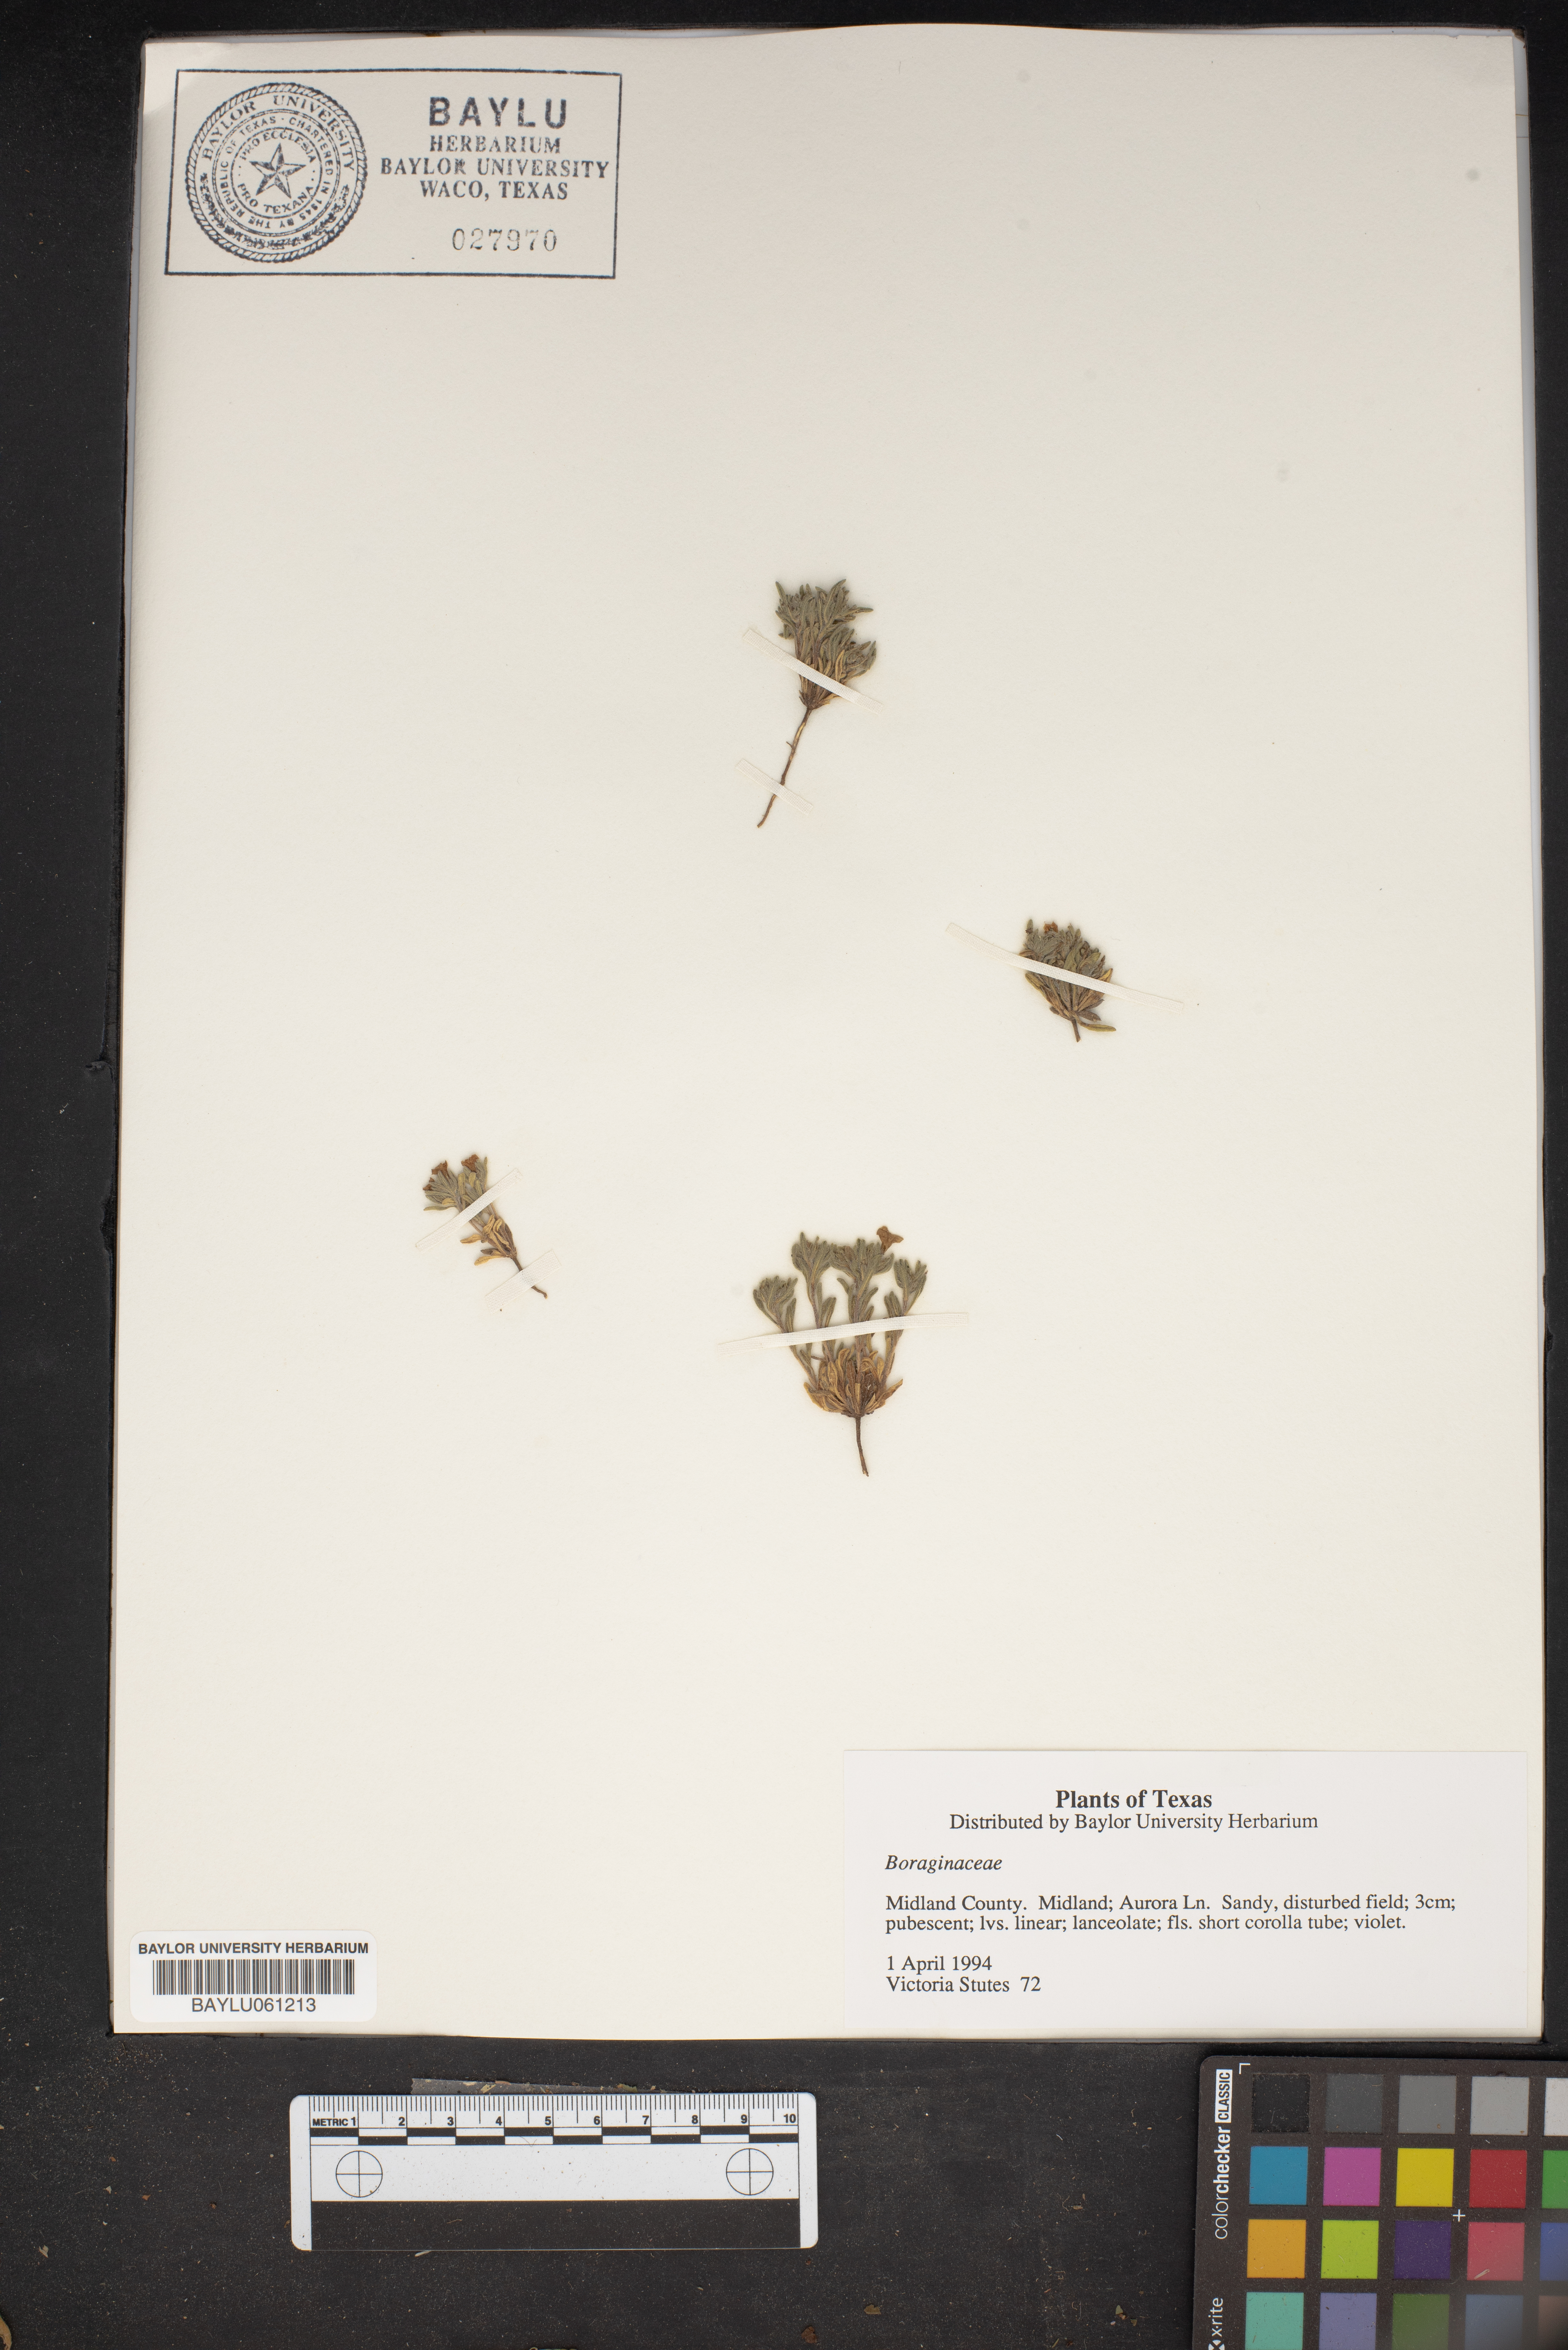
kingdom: Plantae
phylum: Tracheophyta
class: Magnoliopsida
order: Boraginales
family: Boraginaceae
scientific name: Boraginaceae
